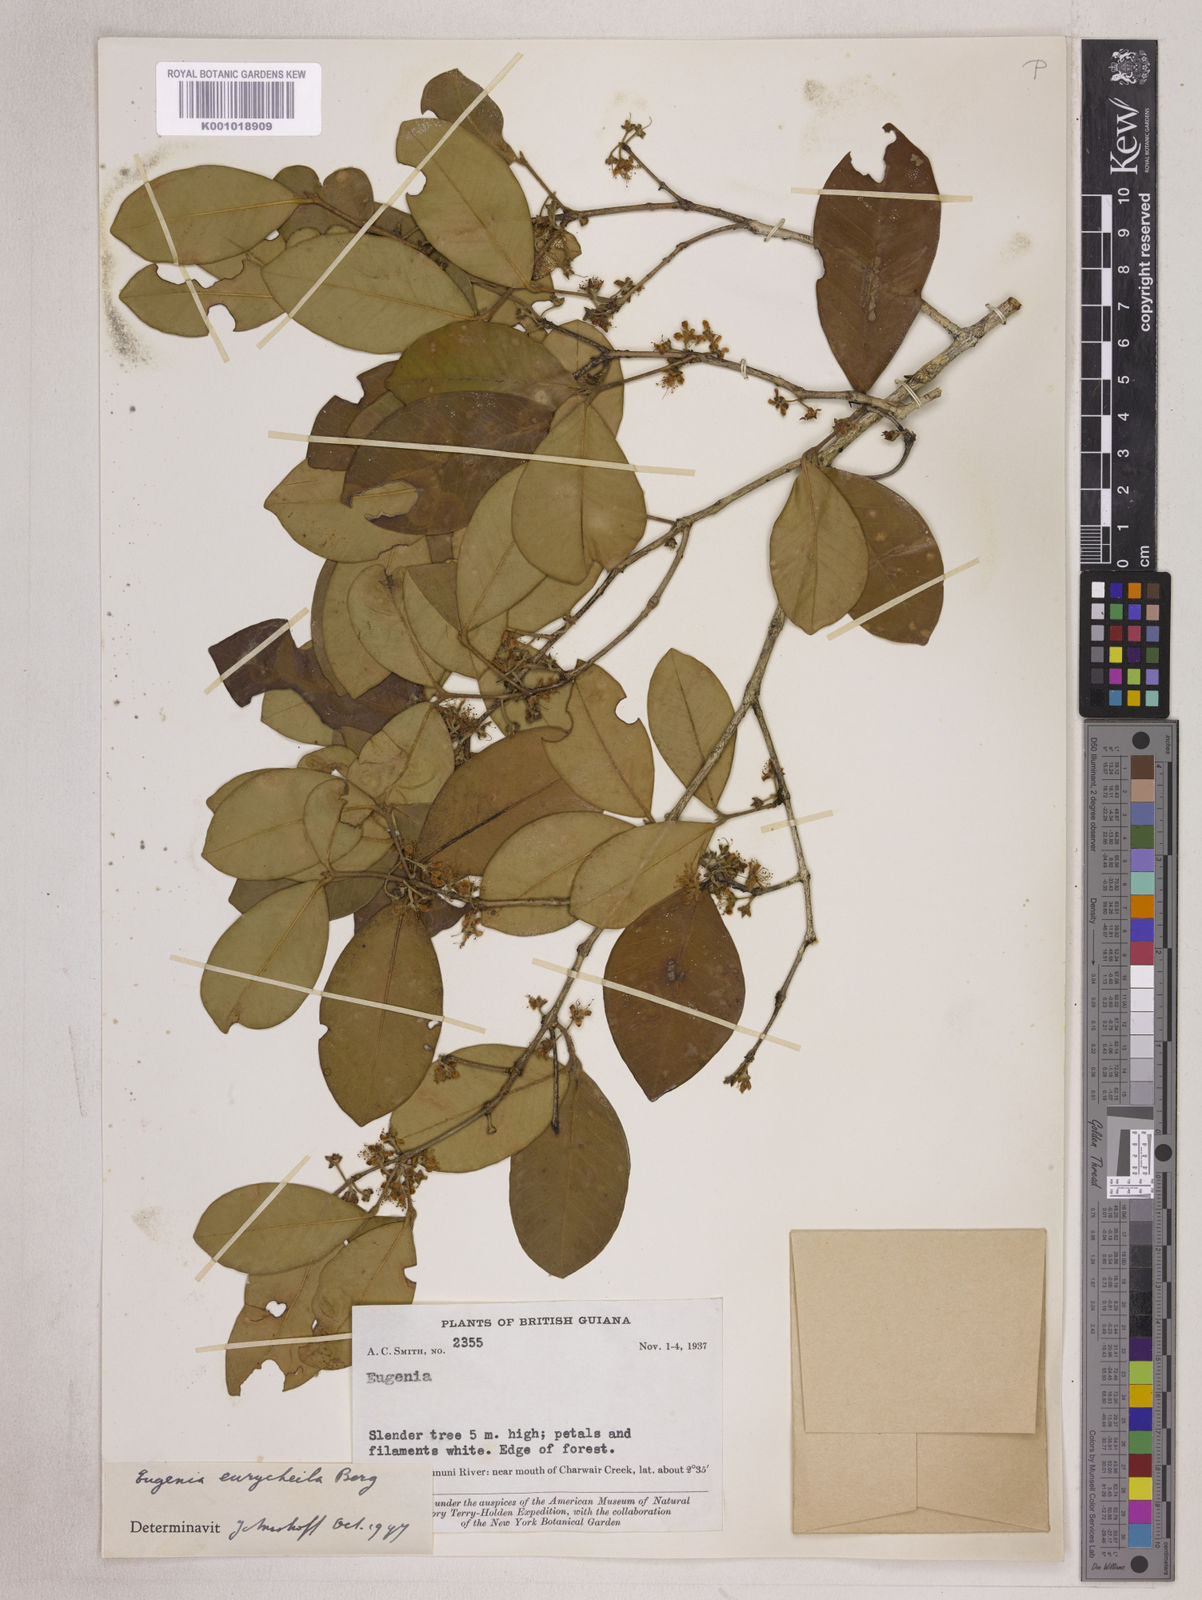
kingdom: Plantae
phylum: Tracheophyta
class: Magnoliopsida
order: Myrtales
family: Myrtaceae
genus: Eugenia
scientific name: Eugenia eurycheila
